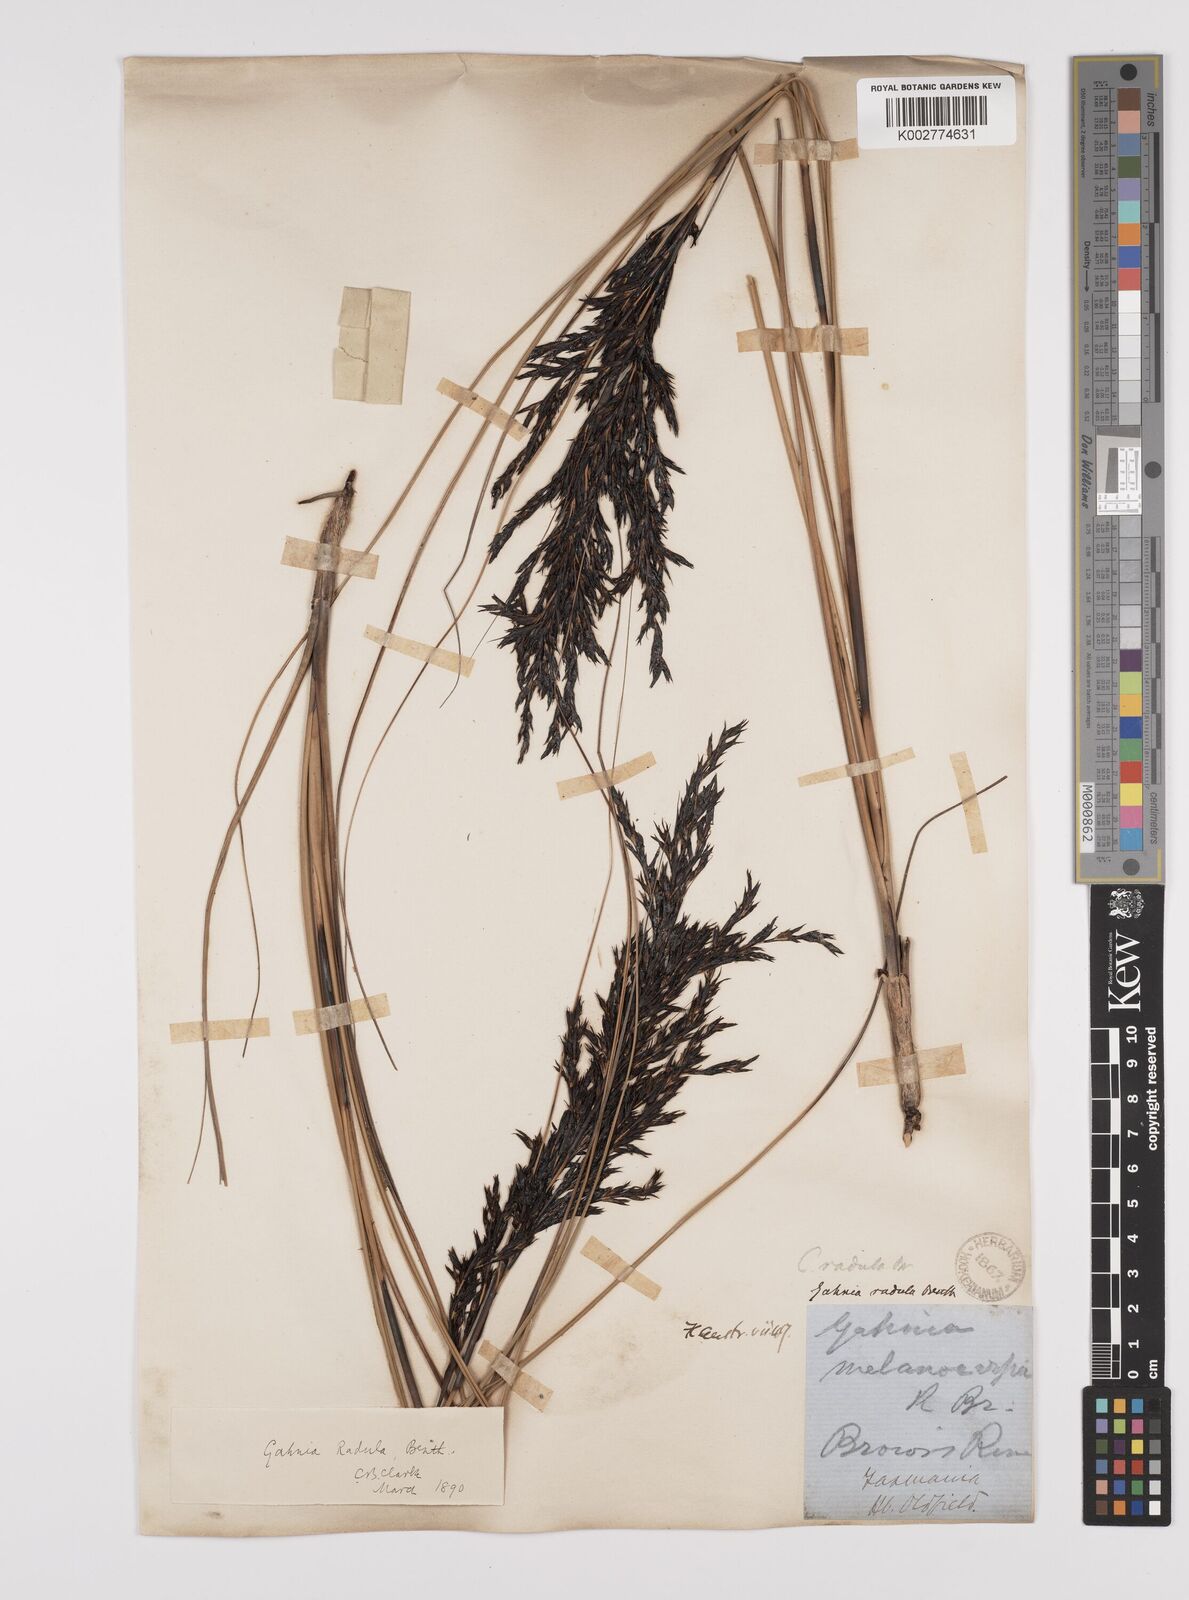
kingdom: Plantae
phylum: Tracheophyta
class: Liliopsida
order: Poales
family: Cyperaceae
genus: Gahnia
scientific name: Gahnia radula
